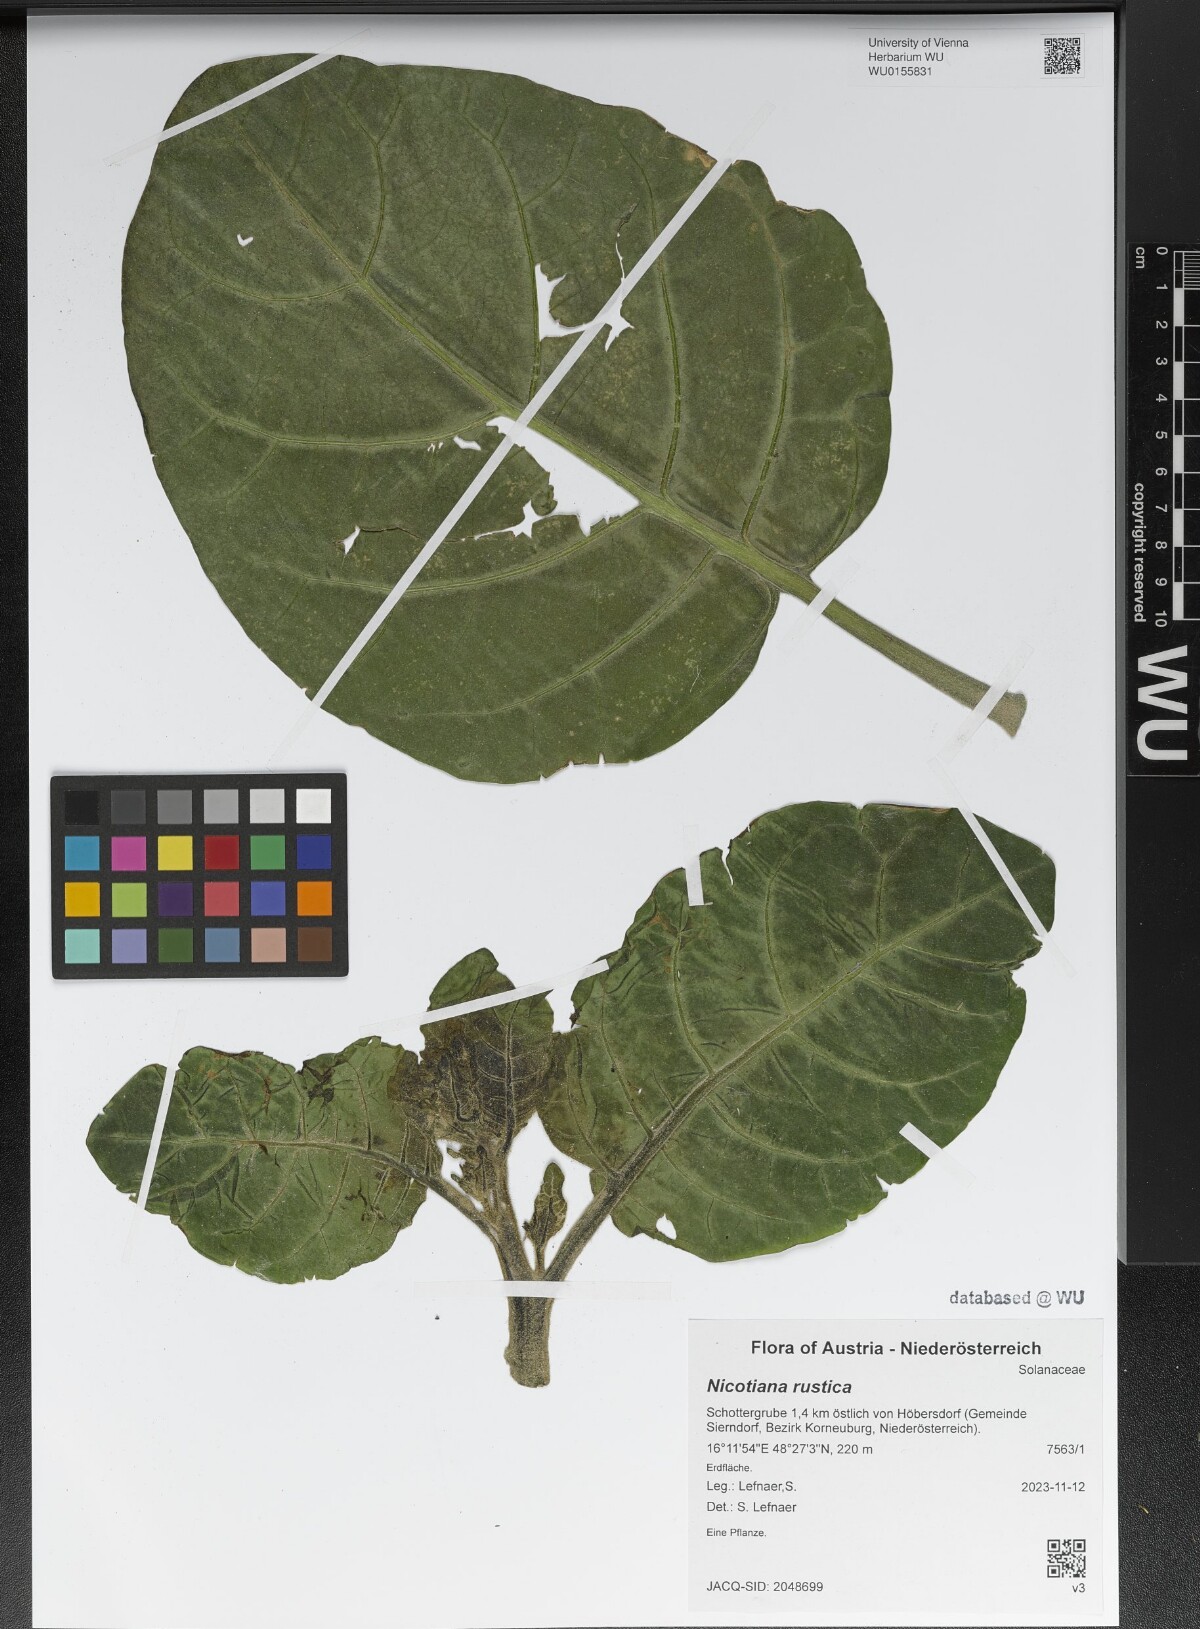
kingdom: Plantae
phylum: Tracheophyta
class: Magnoliopsida
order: Solanales
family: Solanaceae
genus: Nicotiana
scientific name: Nicotiana rustica
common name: Wild tobacco
